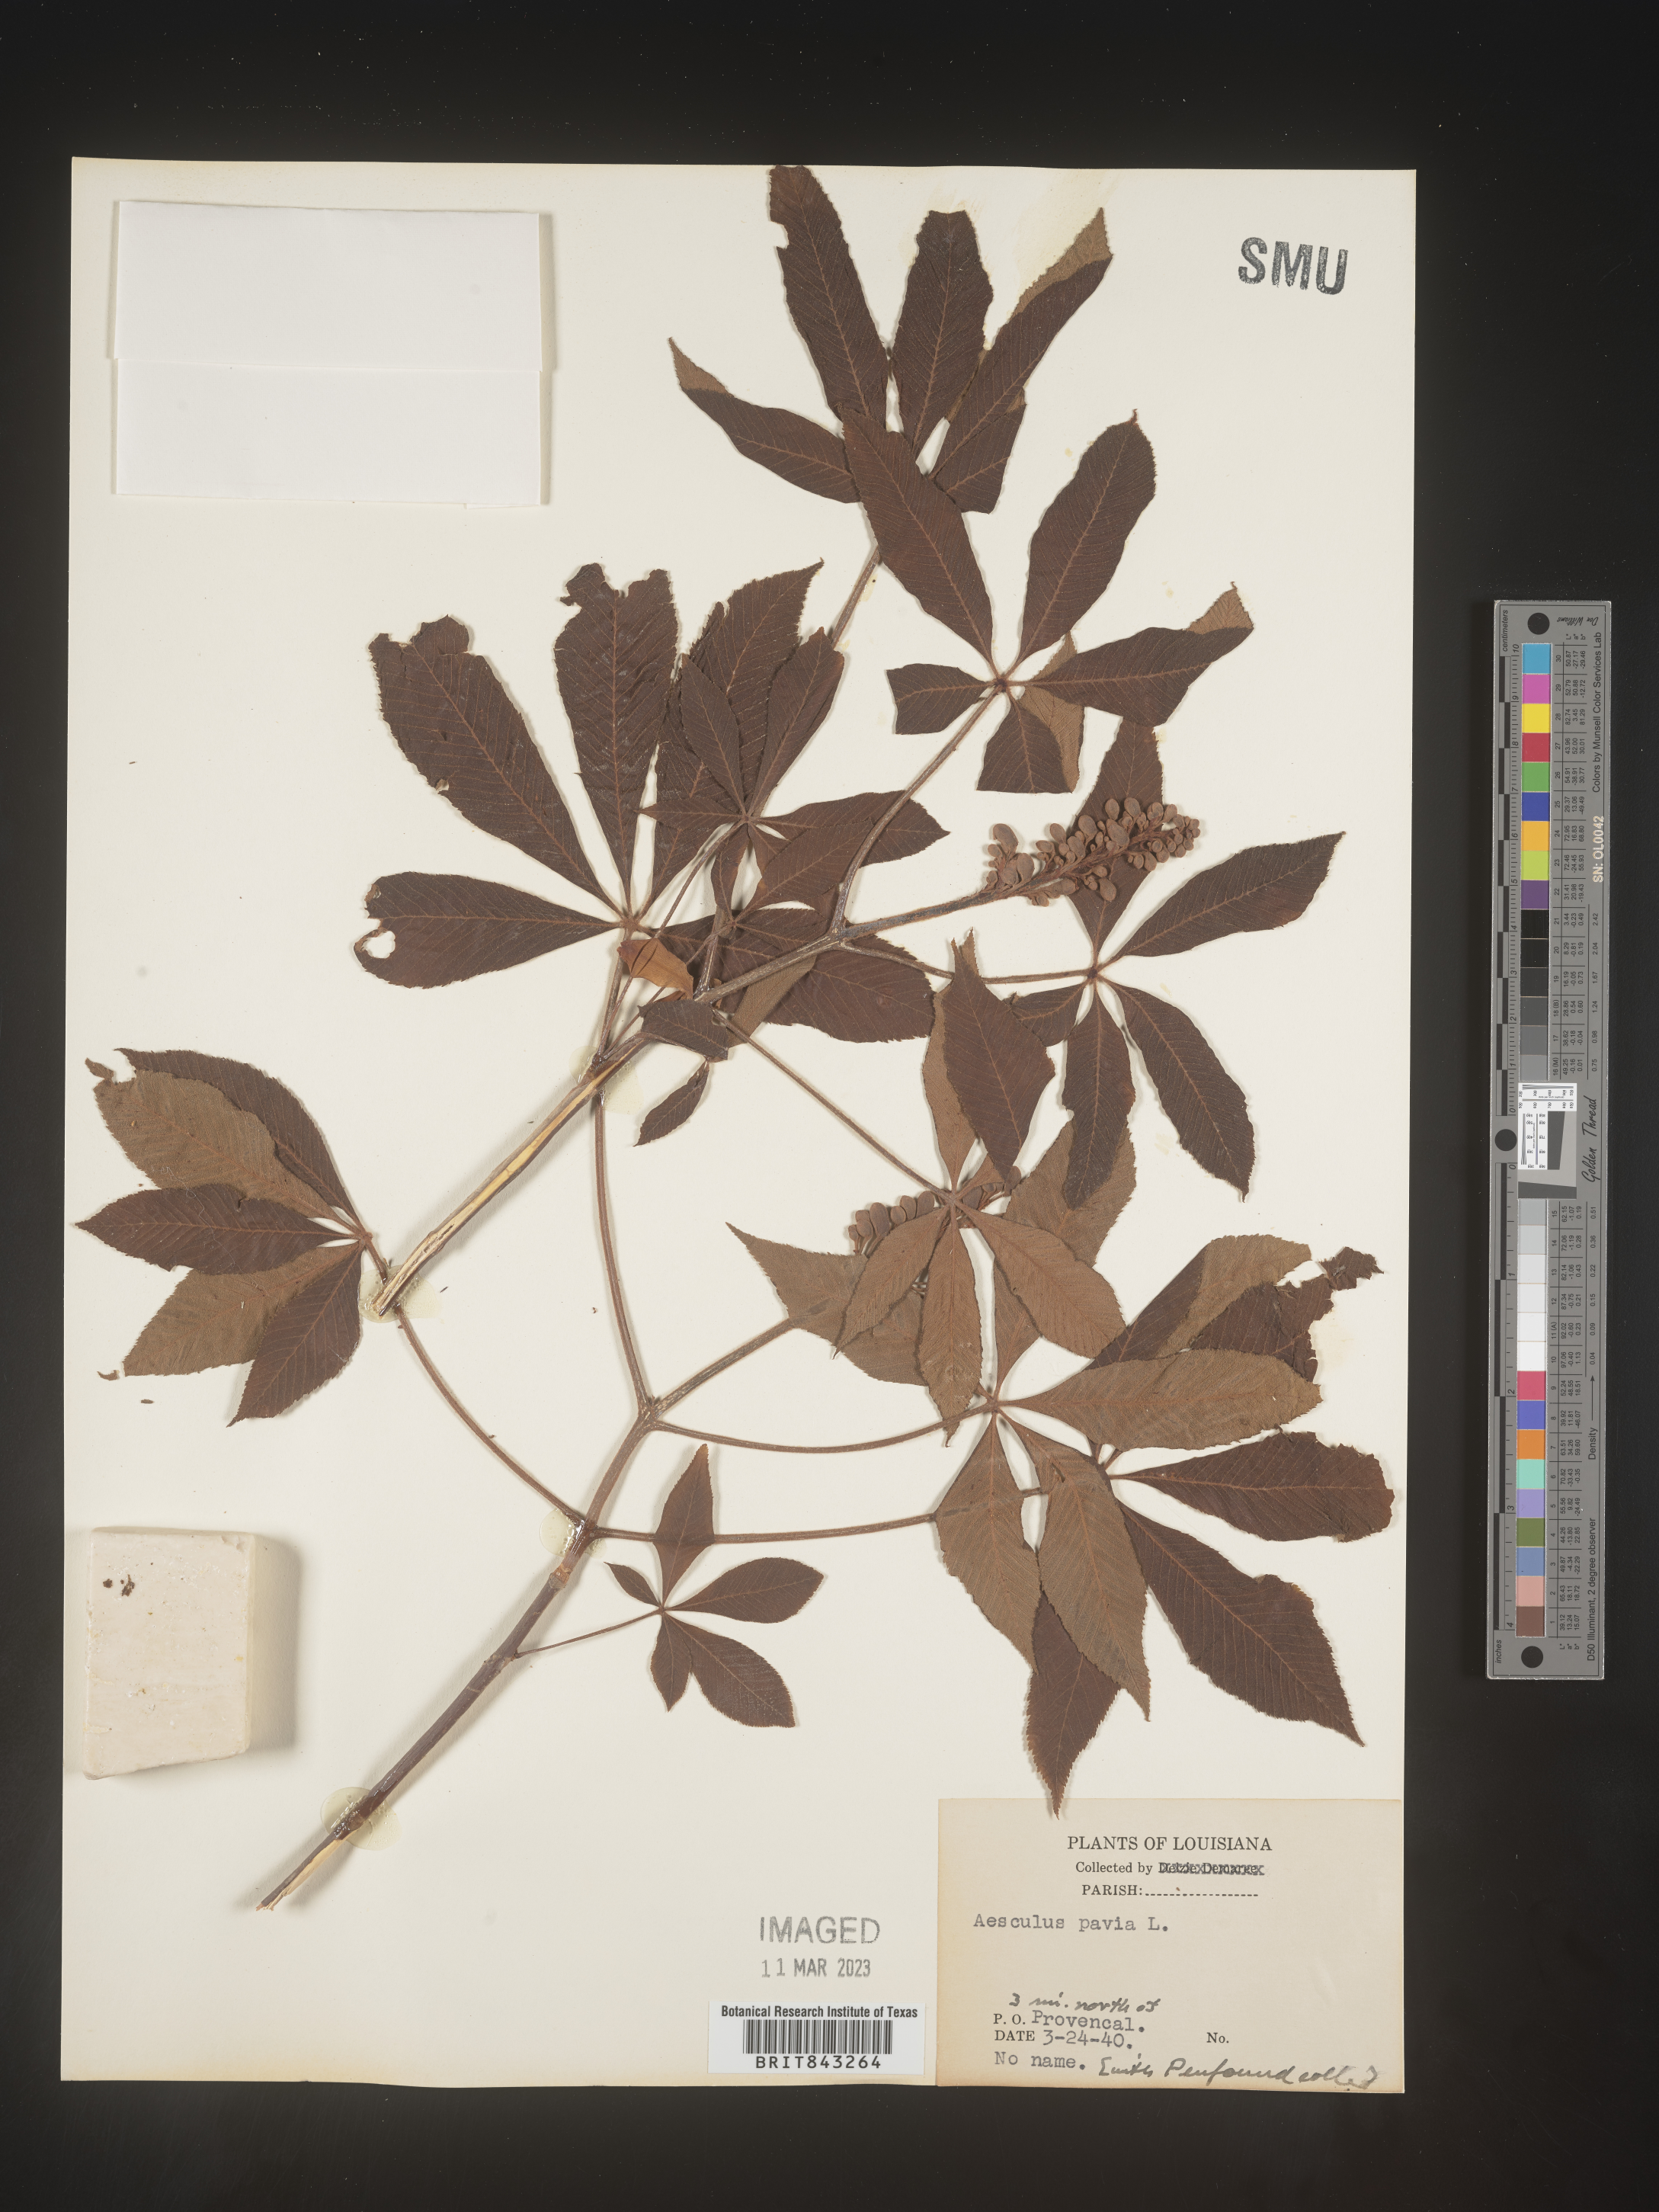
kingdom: Plantae
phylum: Tracheophyta
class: Magnoliopsida
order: Sapindales
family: Sapindaceae
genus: Aesculus
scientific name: Aesculus pavia
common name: Red buckeye
